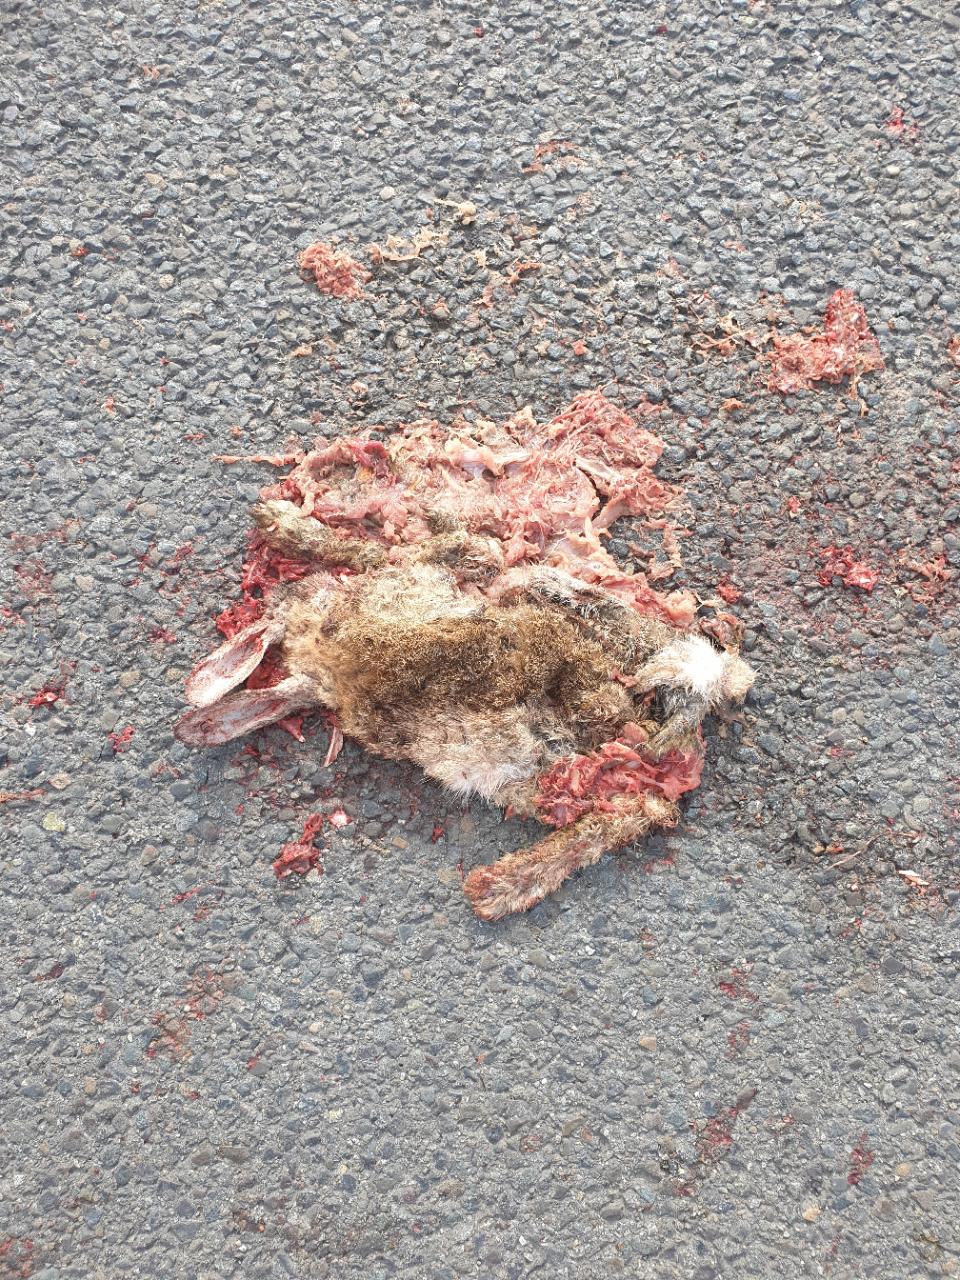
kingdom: Animalia
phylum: Chordata
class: Mammalia
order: Lagomorpha
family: Leporidae
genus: Oryctolagus
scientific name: Oryctolagus cuniculus
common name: European rabbit
